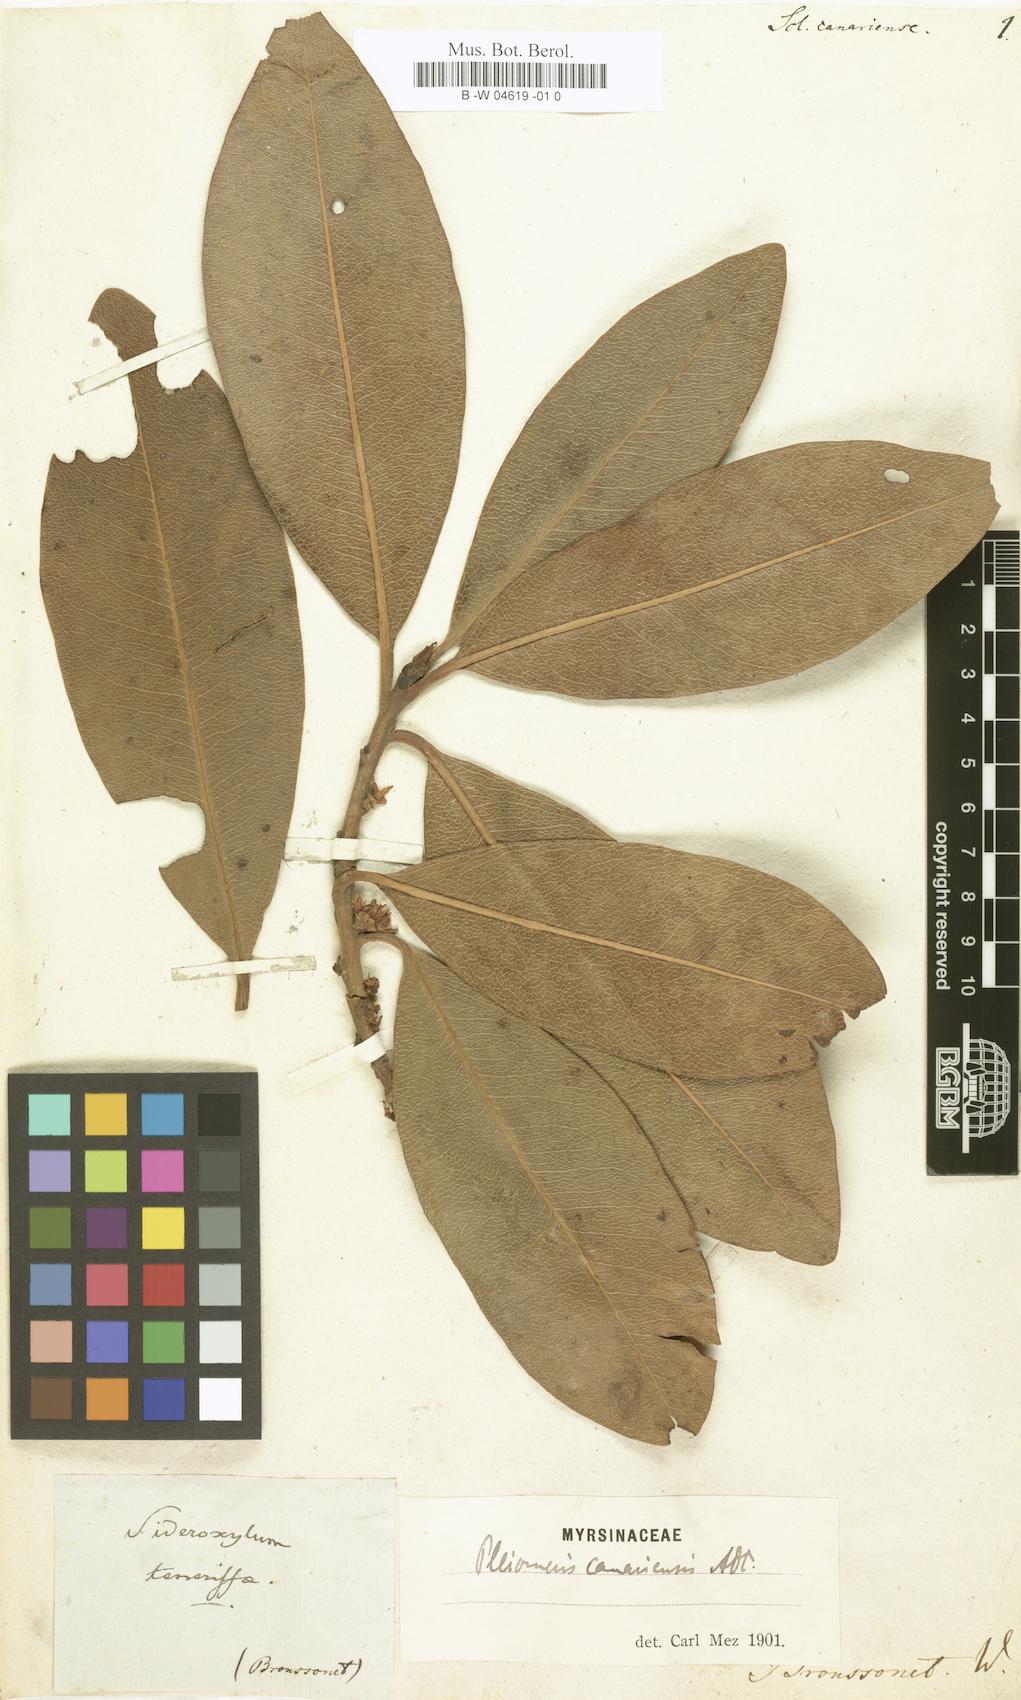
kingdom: Plantae
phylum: Tracheophyta
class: Magnoliopsida
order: Ericales
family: Primulaceae
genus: Pleiomeris
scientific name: Pleiomeris canariensis
